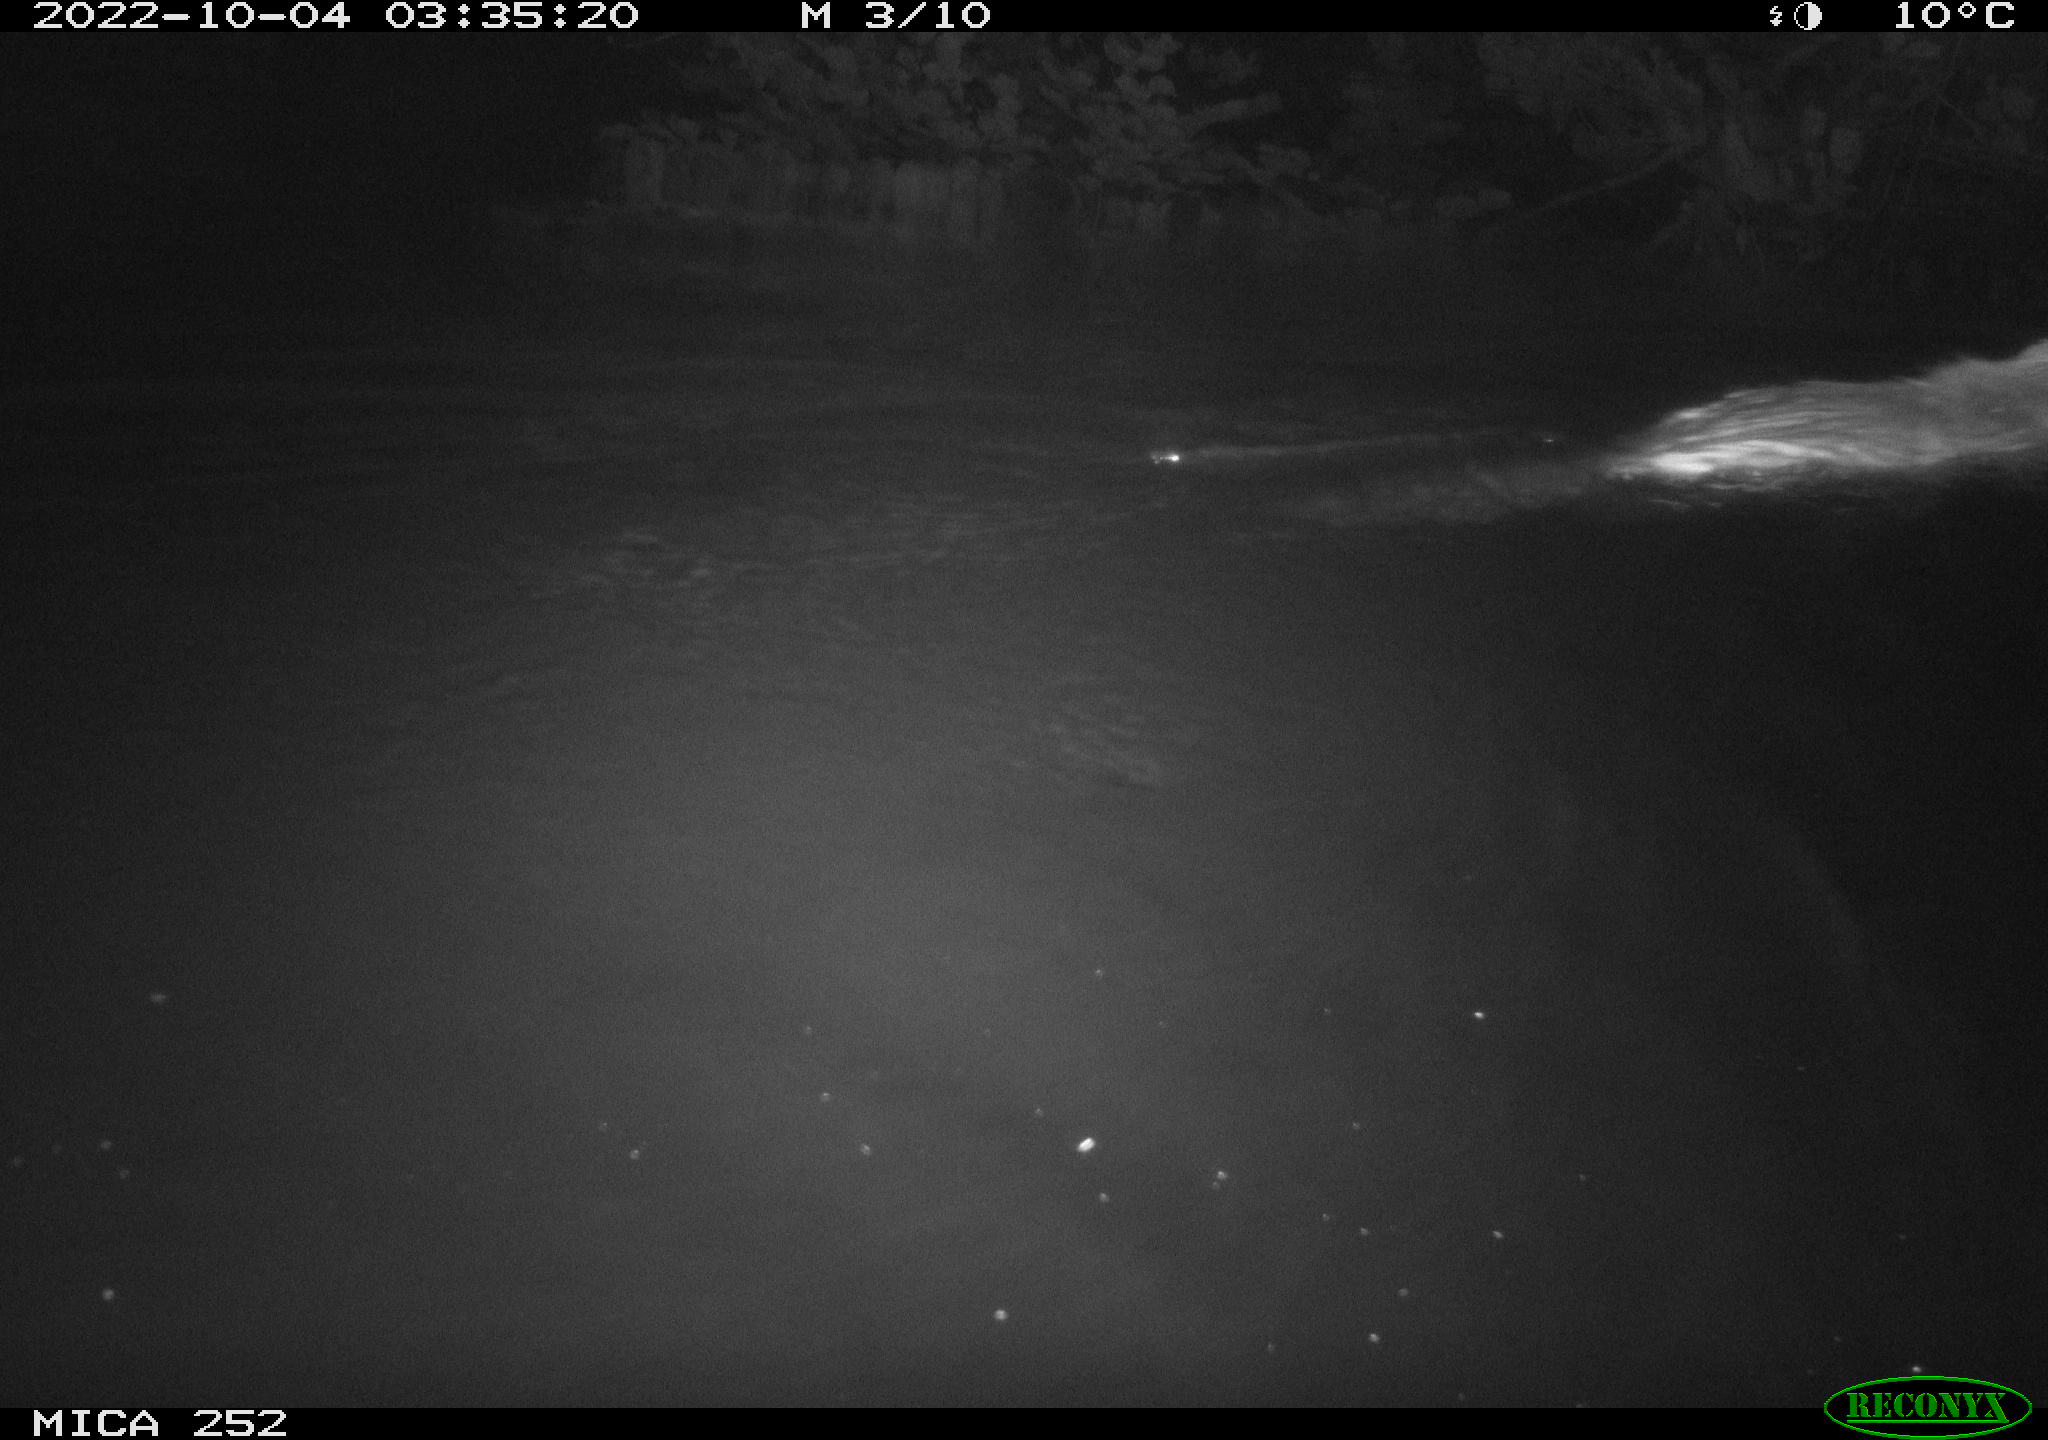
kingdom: Animalia
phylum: Chordata
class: Mammalia
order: Rodentia
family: Castoridae
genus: Castor
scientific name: Castor fiber
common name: Eurasian beaver
